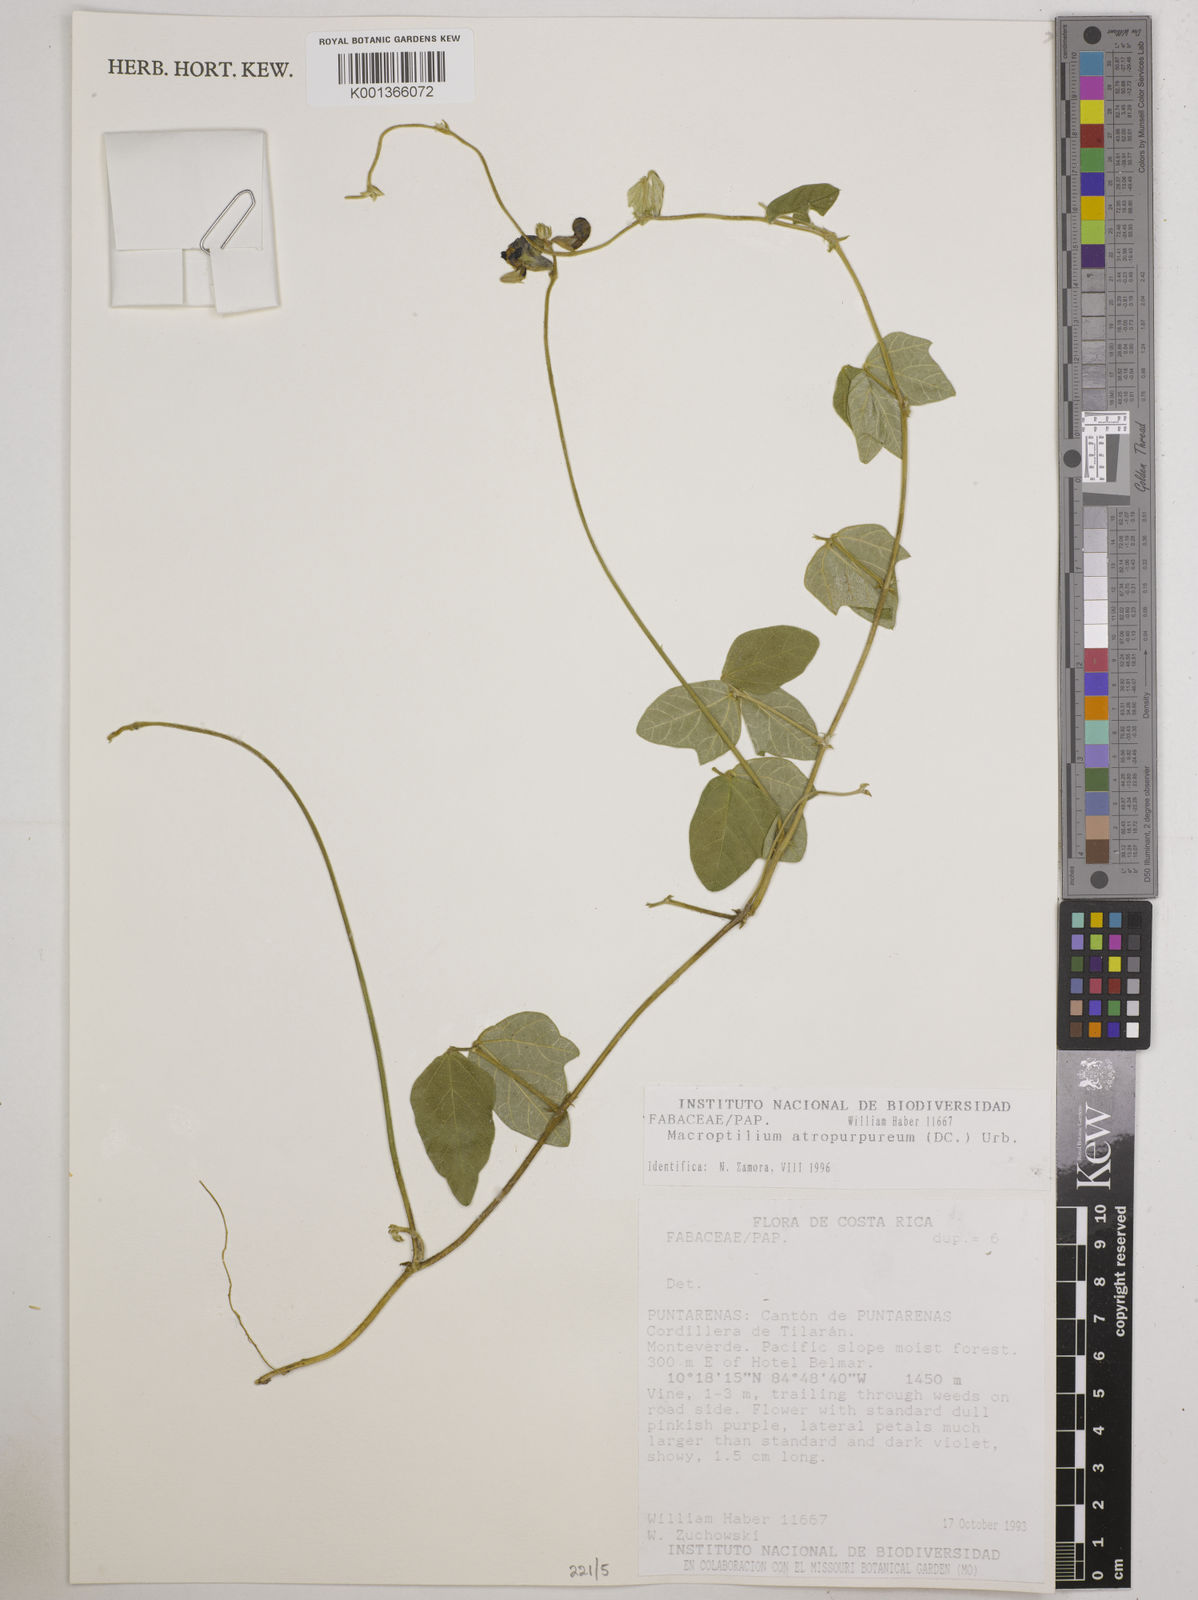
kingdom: Plantae
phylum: Tracheophyta
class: Magnoliopsida
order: Fabales
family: Fabaceae
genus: Macroptilium
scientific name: Macroptilium atropurpureum
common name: Purple bushbean
